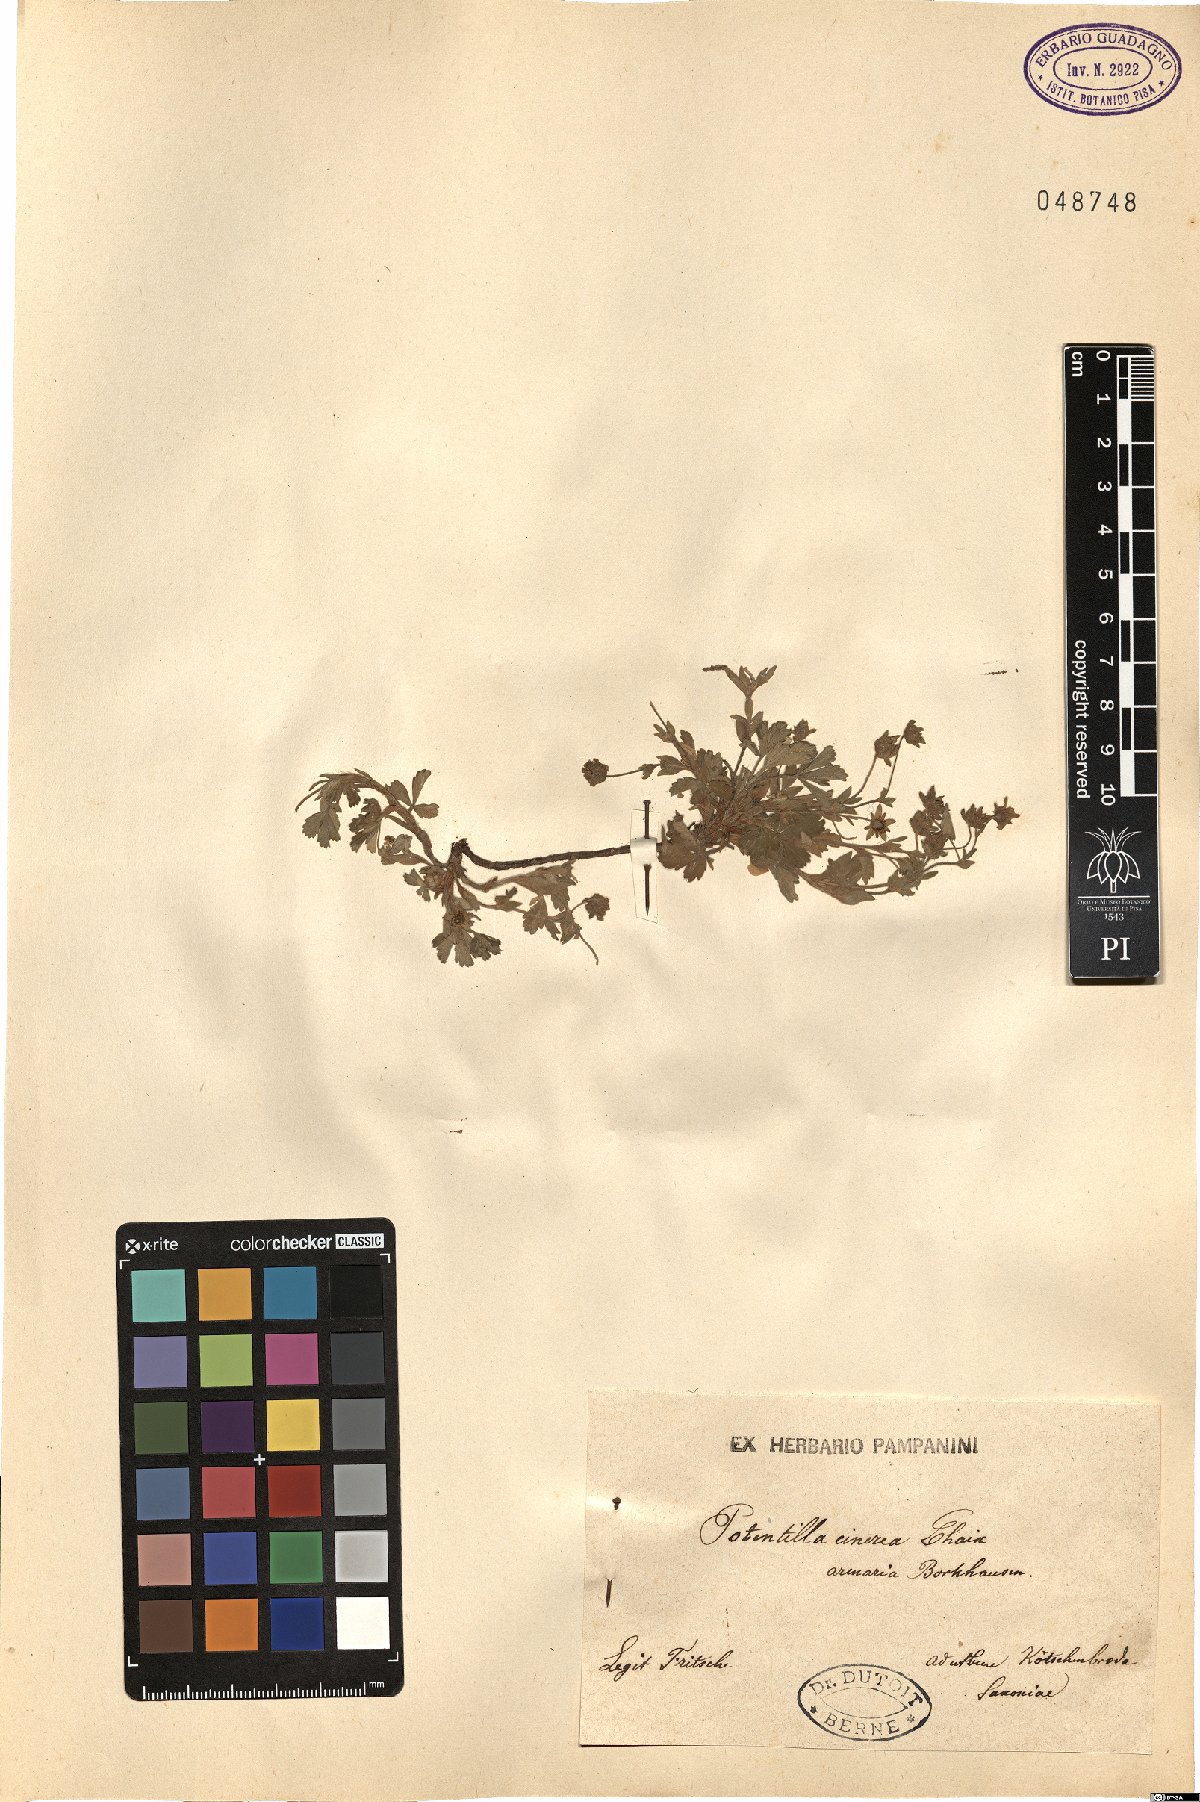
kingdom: Plantae
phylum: Tracheophyta
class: Magnoliopsida
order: Rosales
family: Rosaceae
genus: Potentilla
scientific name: Potentilla cinerea
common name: Ashy cinquefoil
